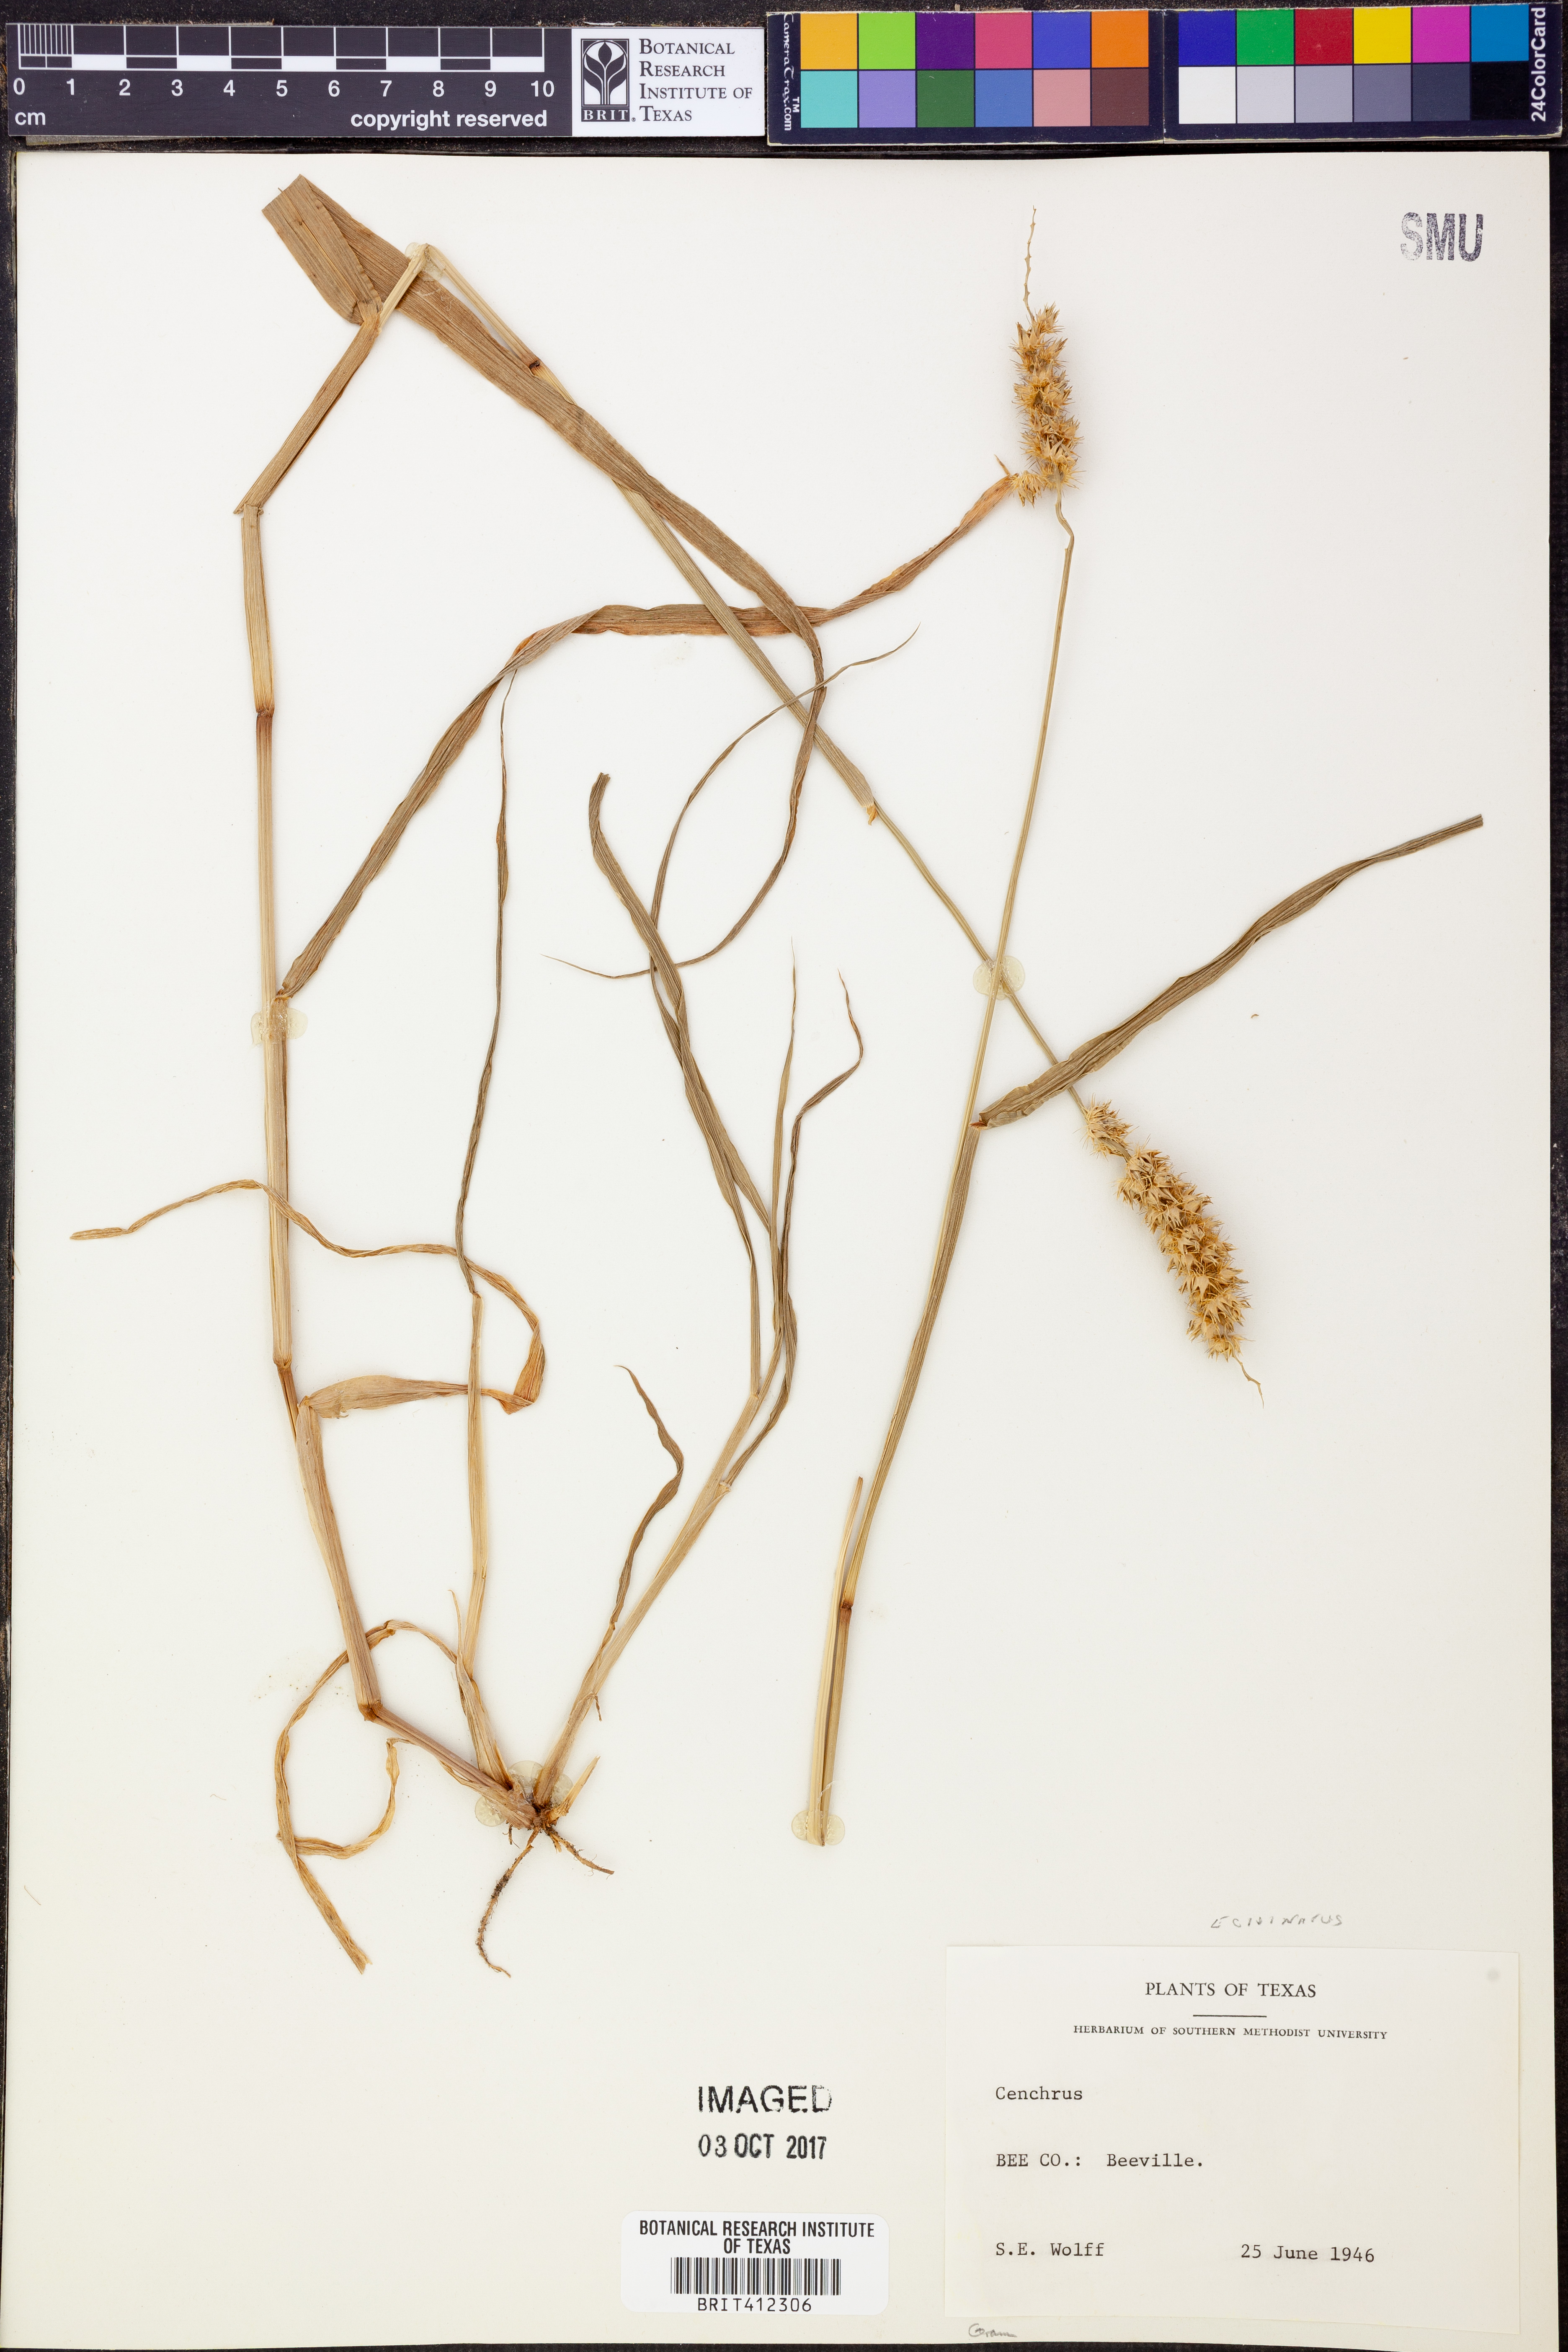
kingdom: Plantae
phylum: Tracheophyta
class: Liliopsida
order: Poales
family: Poaceae
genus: Cenchrus
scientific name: Cenchrus
